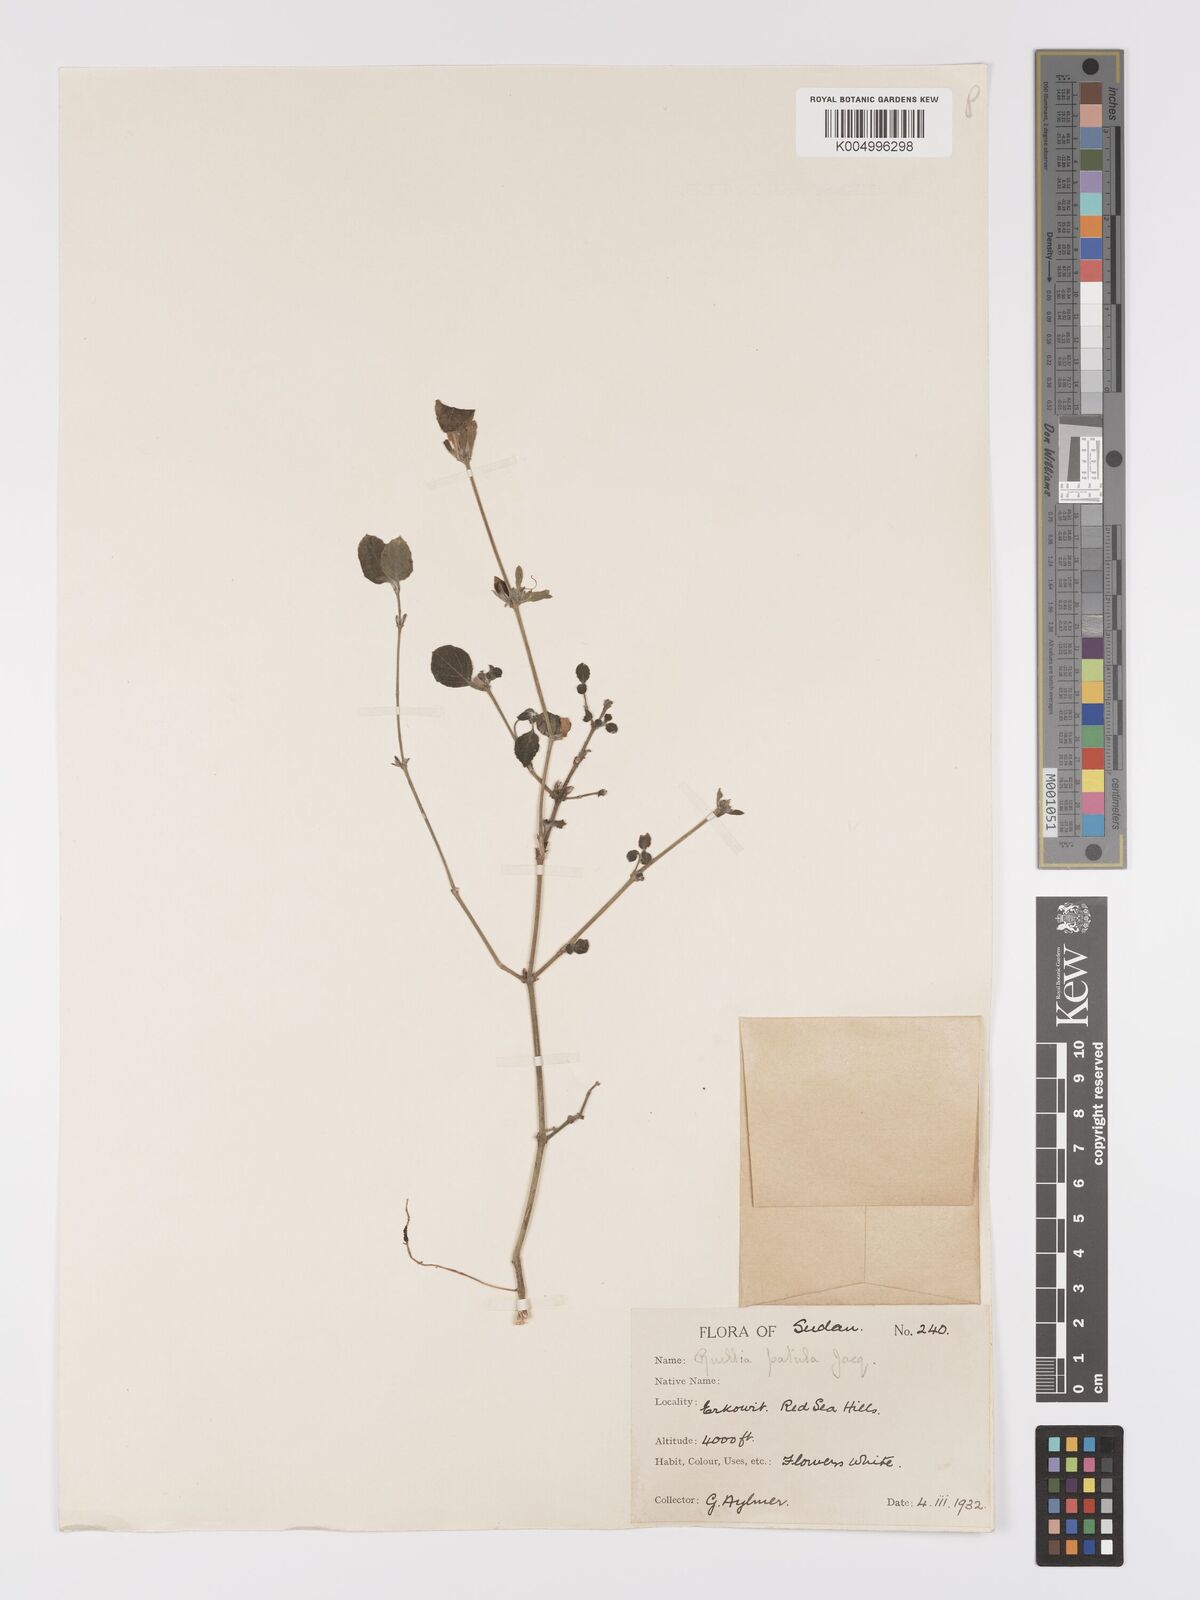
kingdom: Plantae
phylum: Tracheophyta
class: Magnoliopsida
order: Lamiales
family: Acanthaceae
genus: Ruellia
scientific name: Ruellia patula
